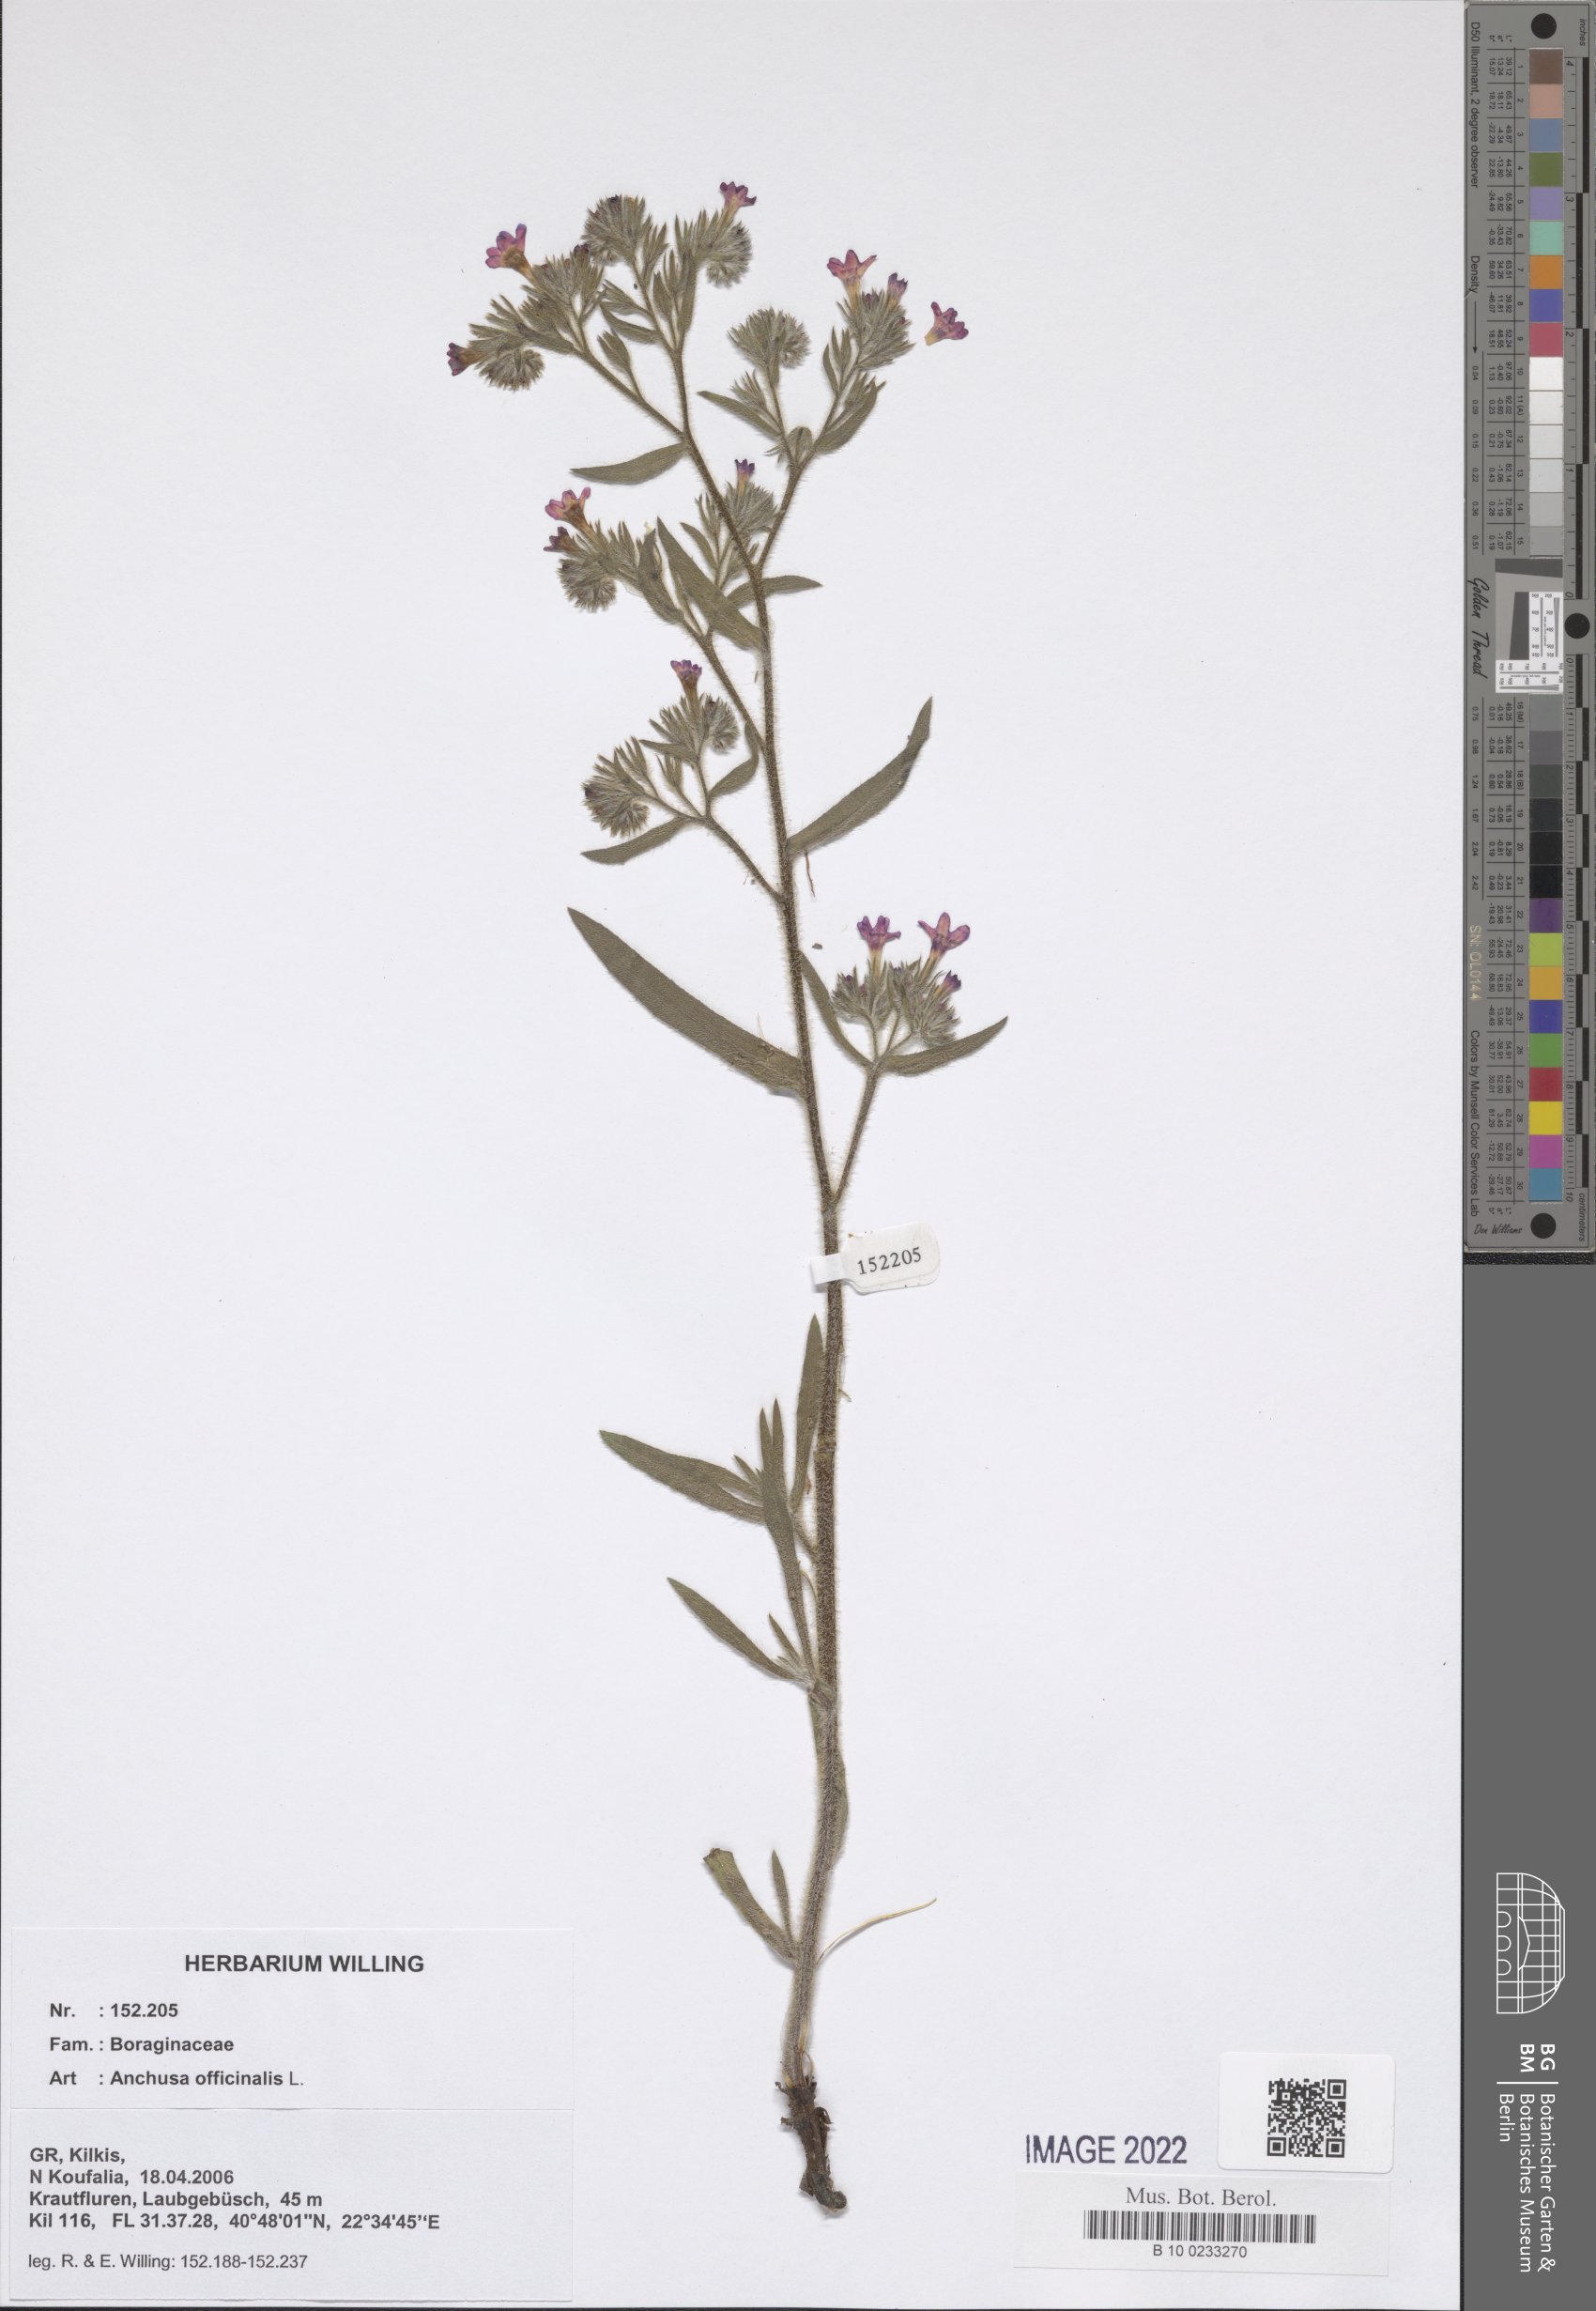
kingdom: Plantae
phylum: Tracheophyta
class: Magnoliopsida
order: Boraginales
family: Boraginaceae
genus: Anchusa
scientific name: Anchusa officinalis
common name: Alkanet
